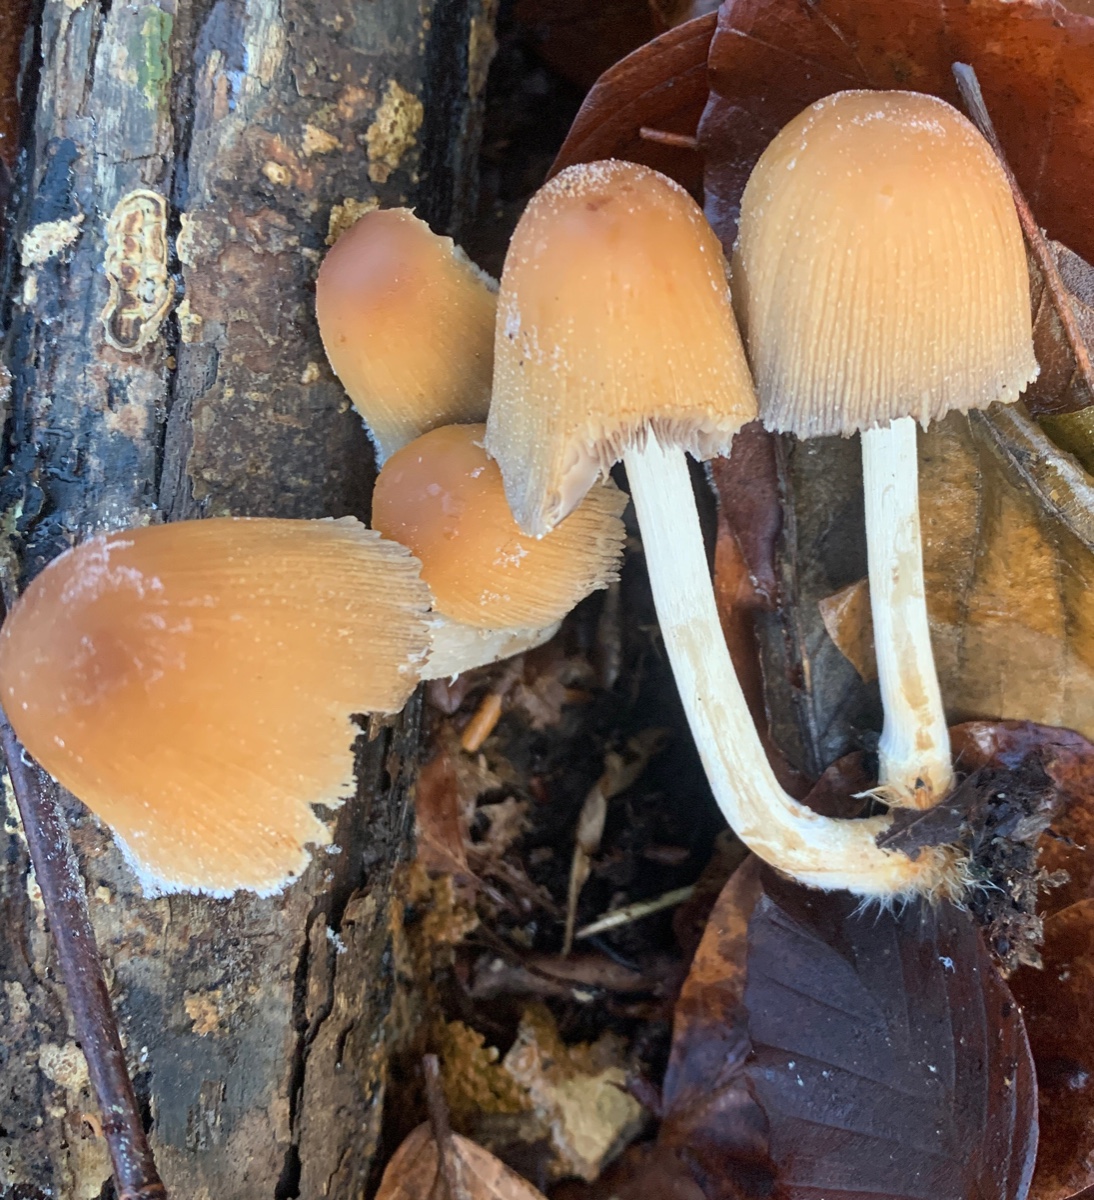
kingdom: Fungi
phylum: Basidiomycota
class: Agaricomycetes
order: Agaricales
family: Psathyrellaceae
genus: Coprinellus
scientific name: Coprinellus micaceus
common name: glimmer-blækhat
